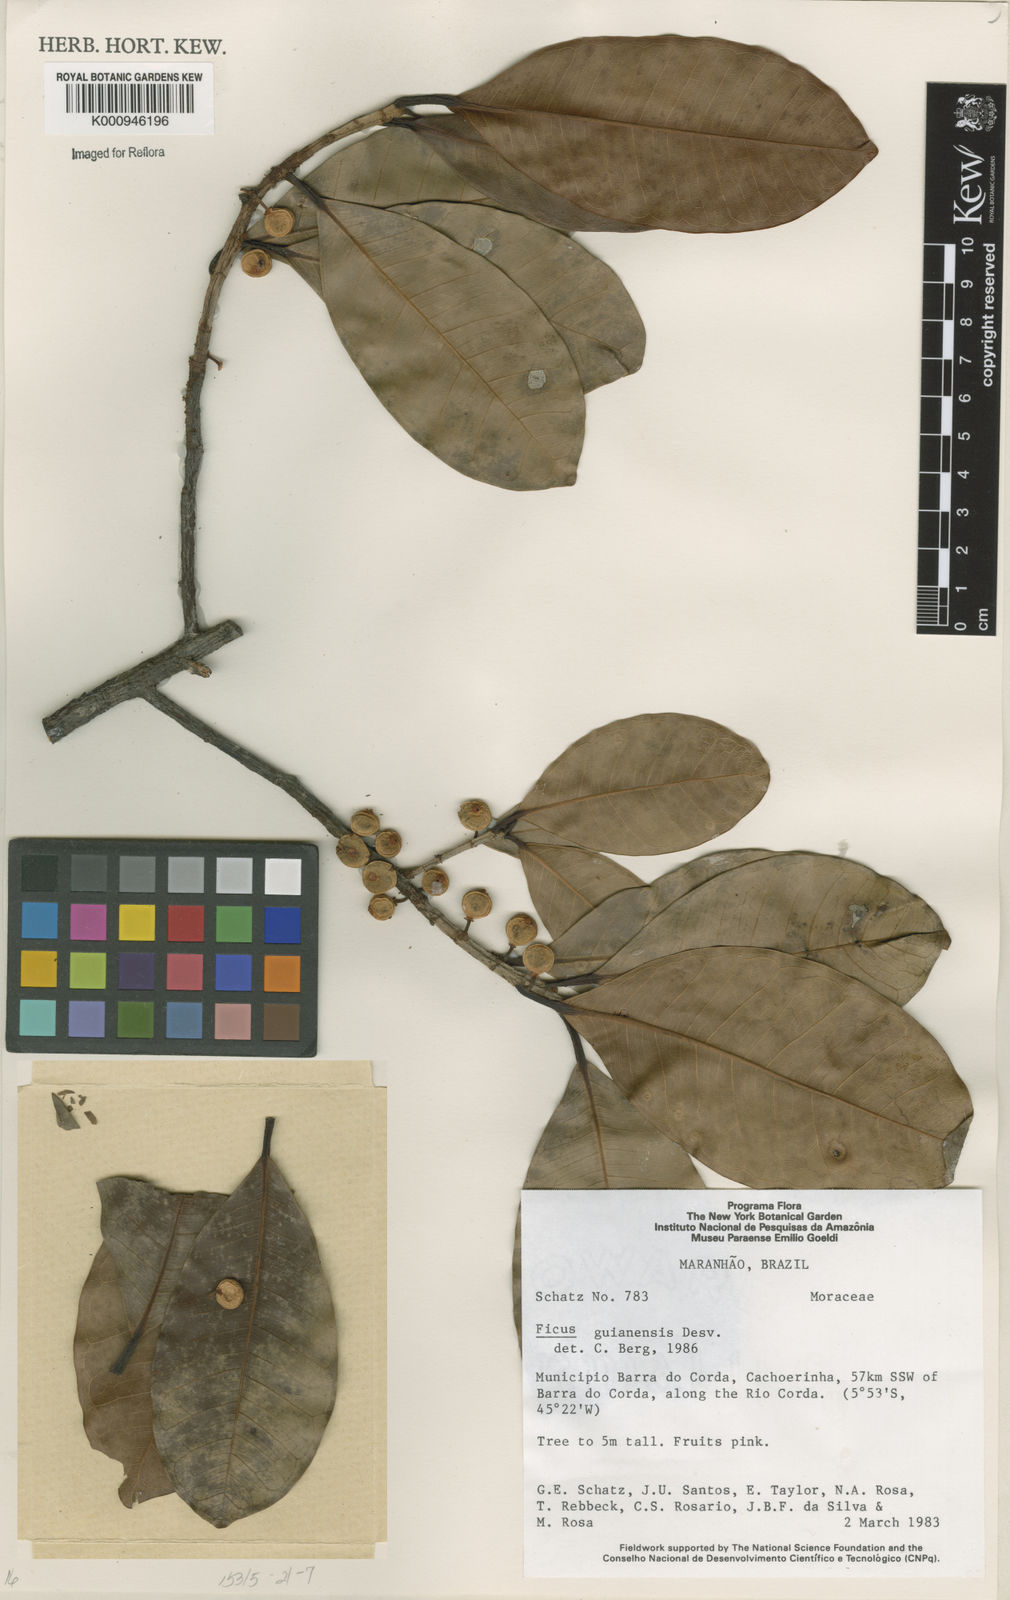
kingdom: Plantae
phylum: Tracheophyta
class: Magnoliopsida
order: Rosales
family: Moraceae
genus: Ficus
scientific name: Ficus americana
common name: Jamaican cherry fig
